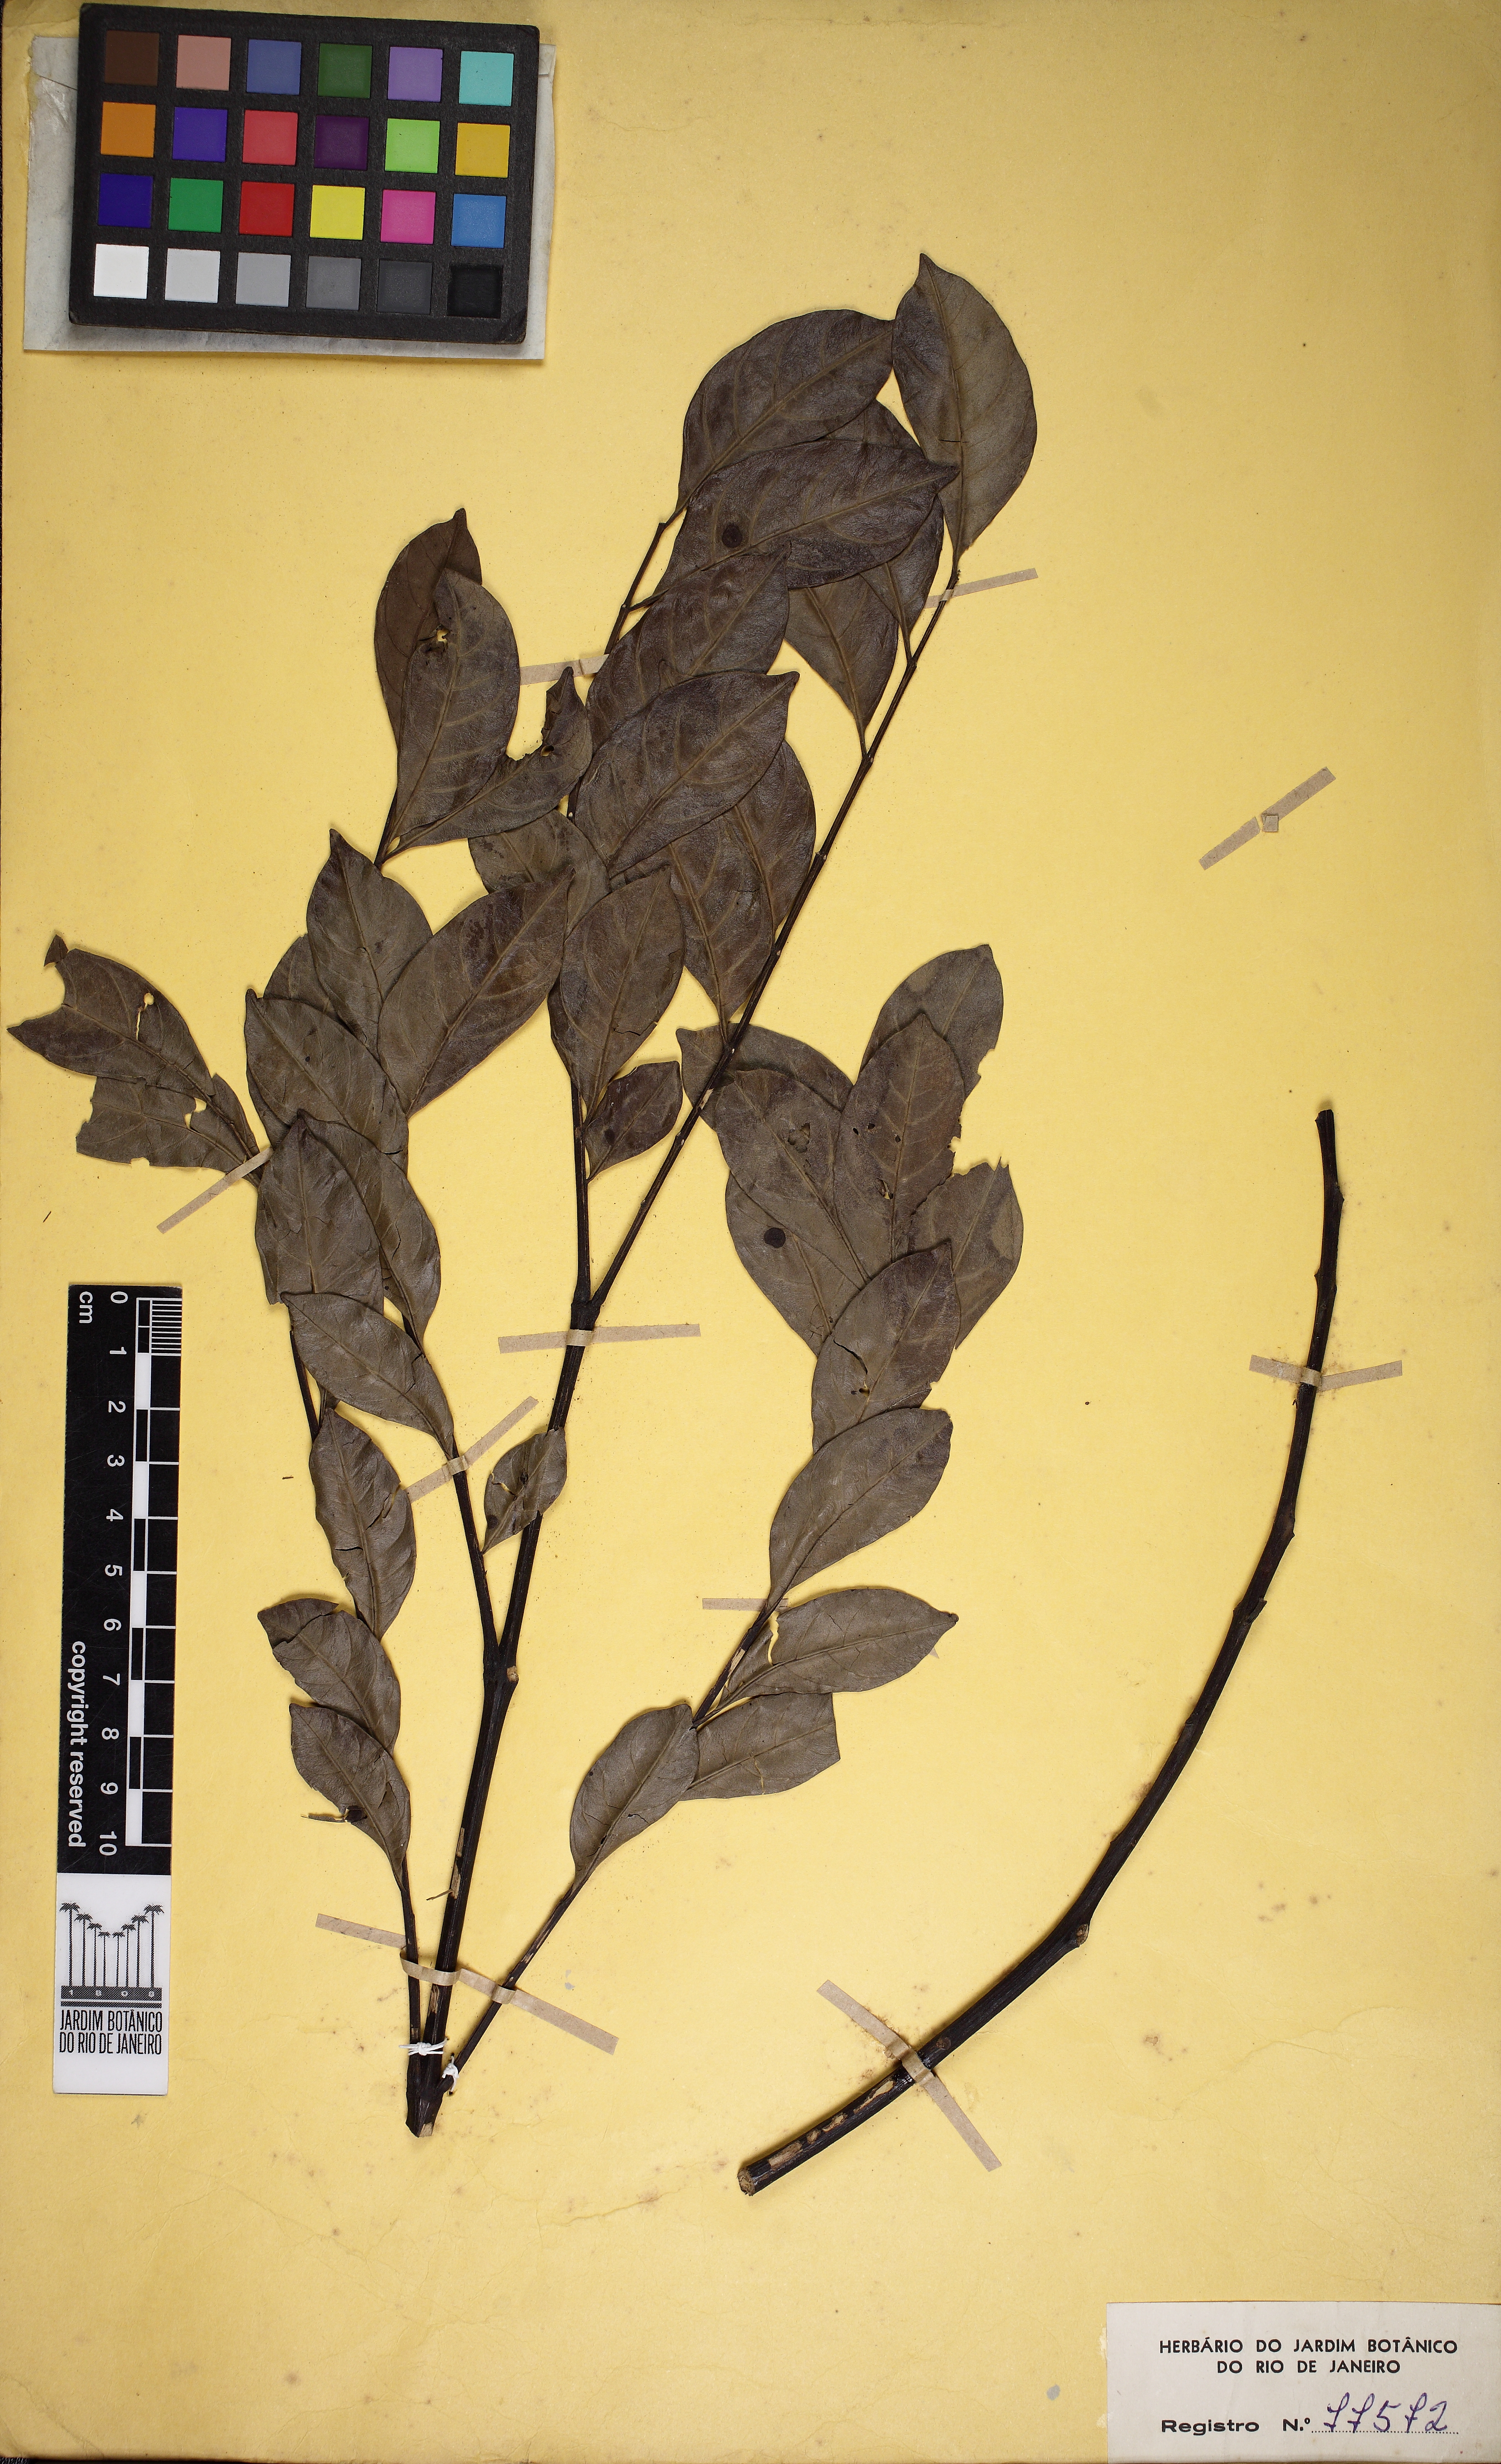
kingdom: Plantae
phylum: Tracheophyta
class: Magnoliopsida
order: Lamiales
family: Bignoniaceae
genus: Jacaranda
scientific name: Jacaranda copaia
